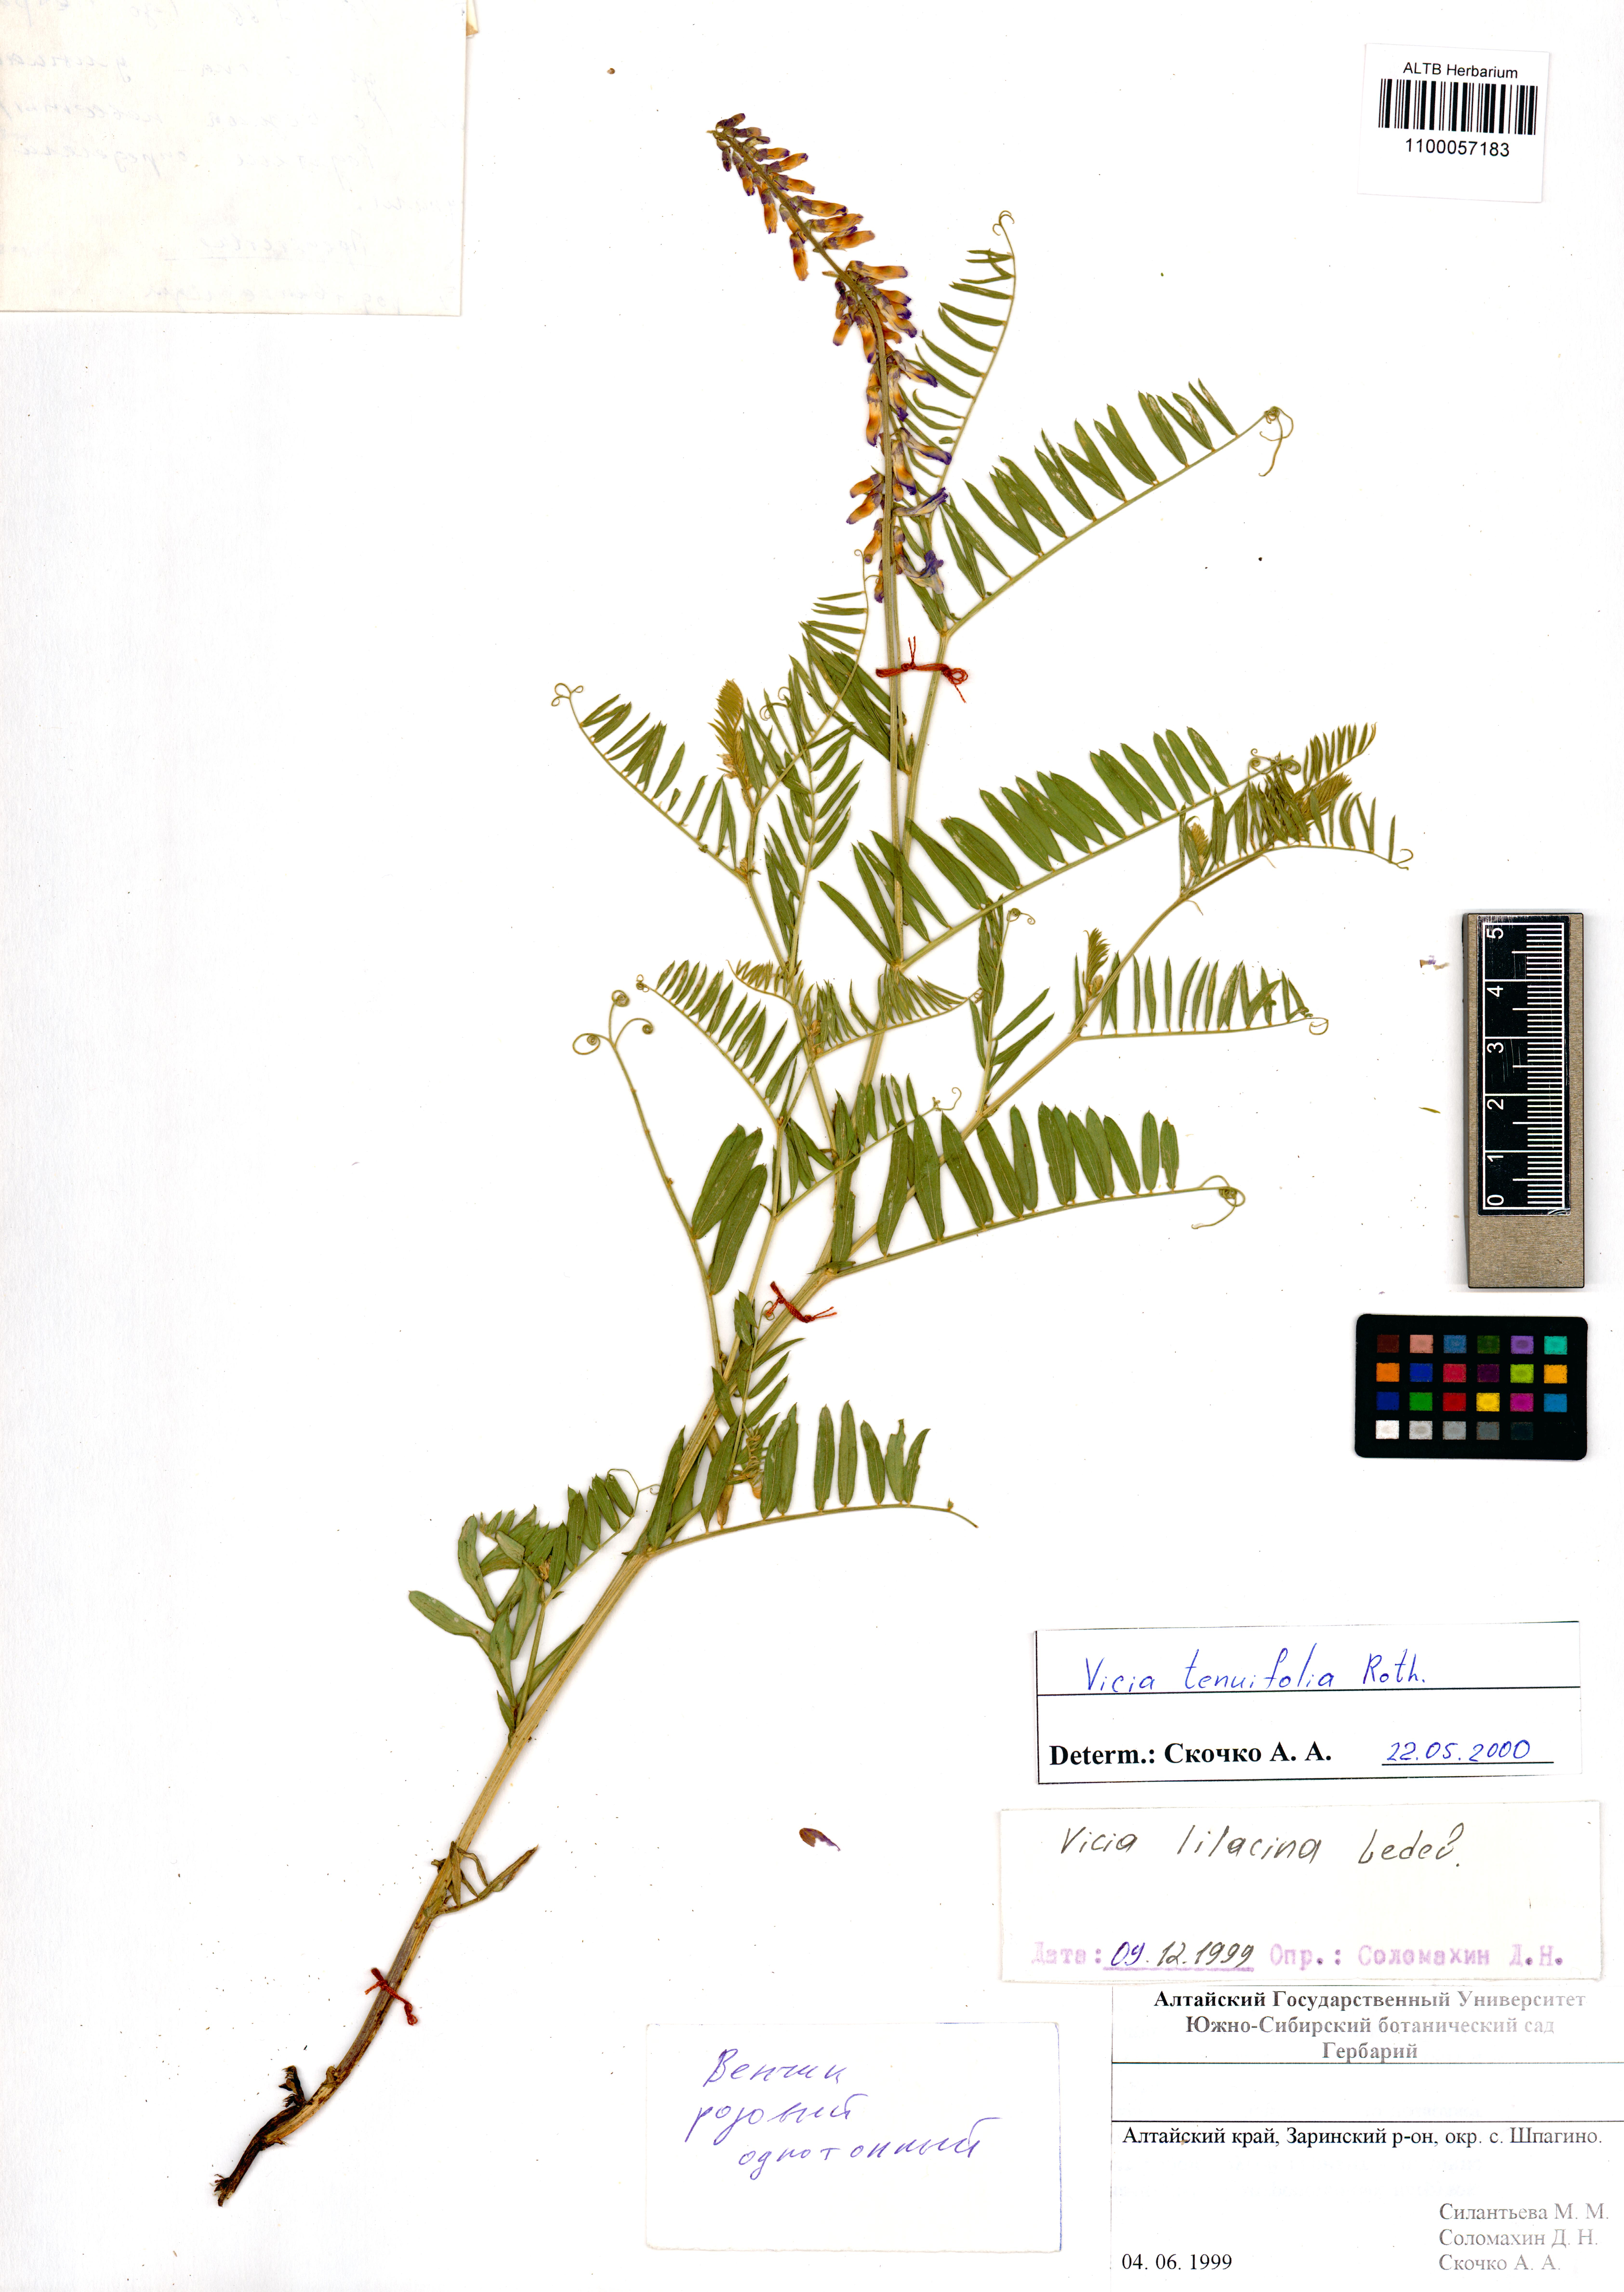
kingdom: Plantae
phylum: Tracheophyta
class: Magnoliopsida
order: Fabales
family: Fabaceae
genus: Vicia
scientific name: Vicia tenuifolia
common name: Fine-leaved vetch
